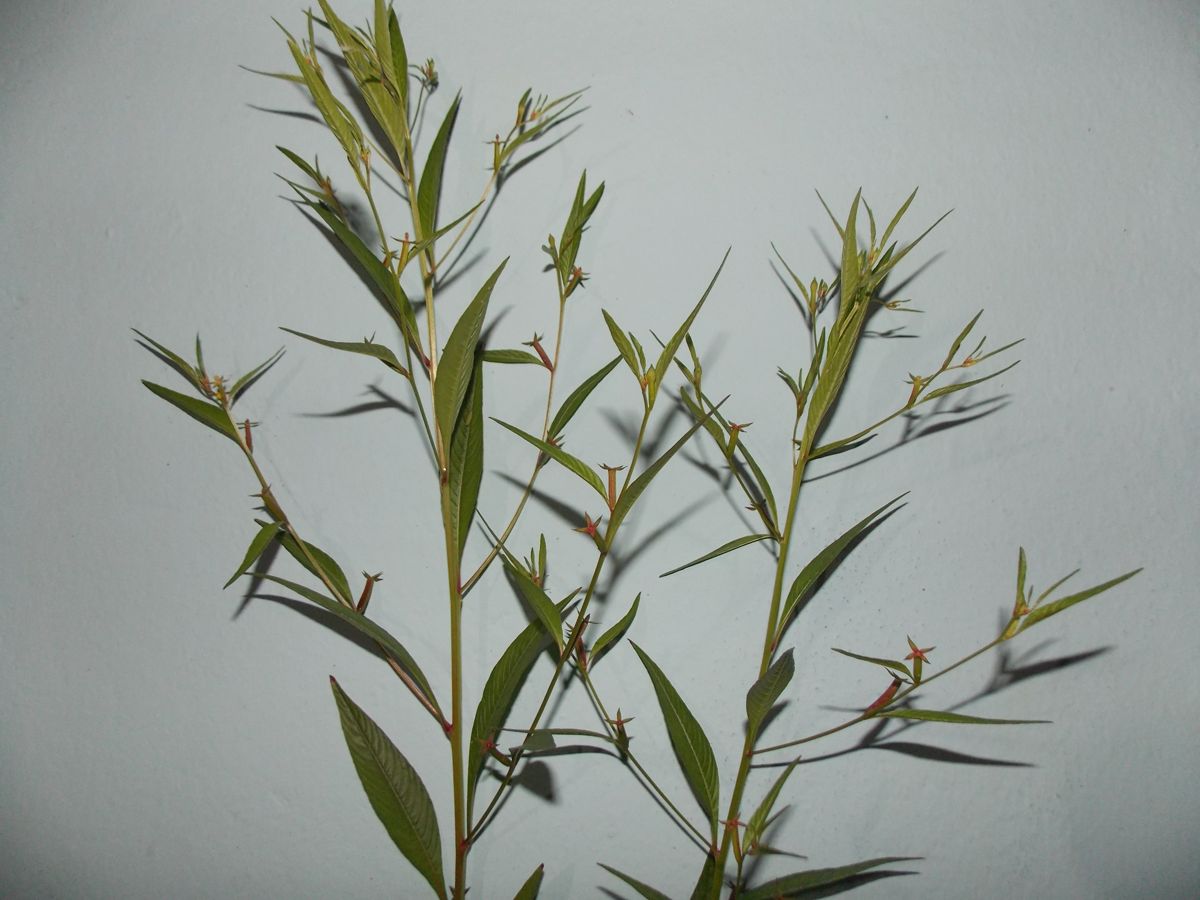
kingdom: Plantae
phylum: Tracheophyta
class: Magnoliopsida
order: Myrtales
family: Onagraceae
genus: Ludwigia
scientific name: Ludwigia erecta
